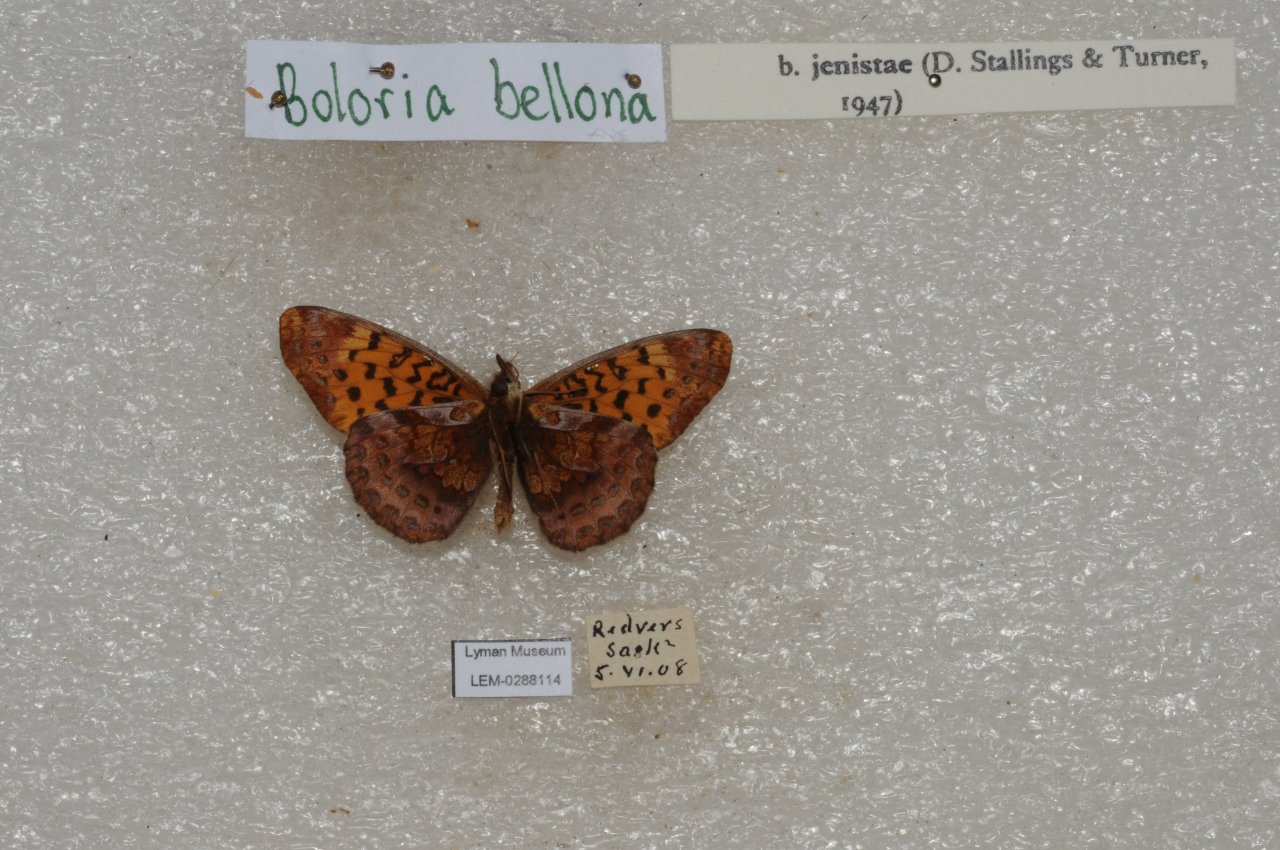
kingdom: Animalia
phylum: Arthropoda
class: Insecta
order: Lepidoptera
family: Nymphalidae
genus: Clossiana
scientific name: Clossiana toddi
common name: Meadow Fritillary
